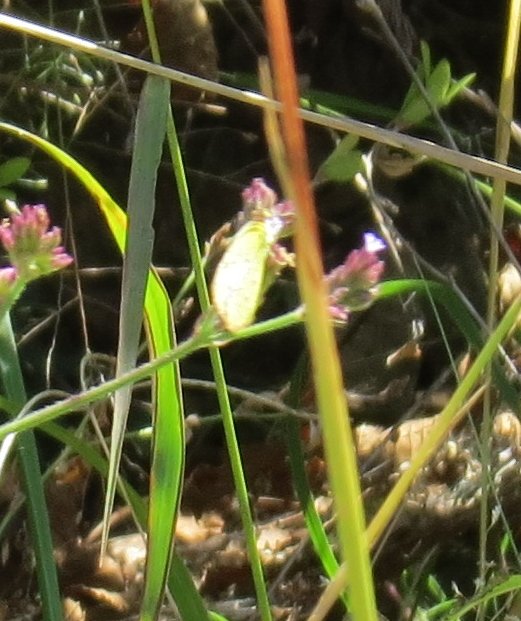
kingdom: Animalia
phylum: Arthropoda
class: Insecta
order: Lepidoptera
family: Pieridae
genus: Pyrisitia
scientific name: Pyrisitia lisa
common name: Little Yellow
